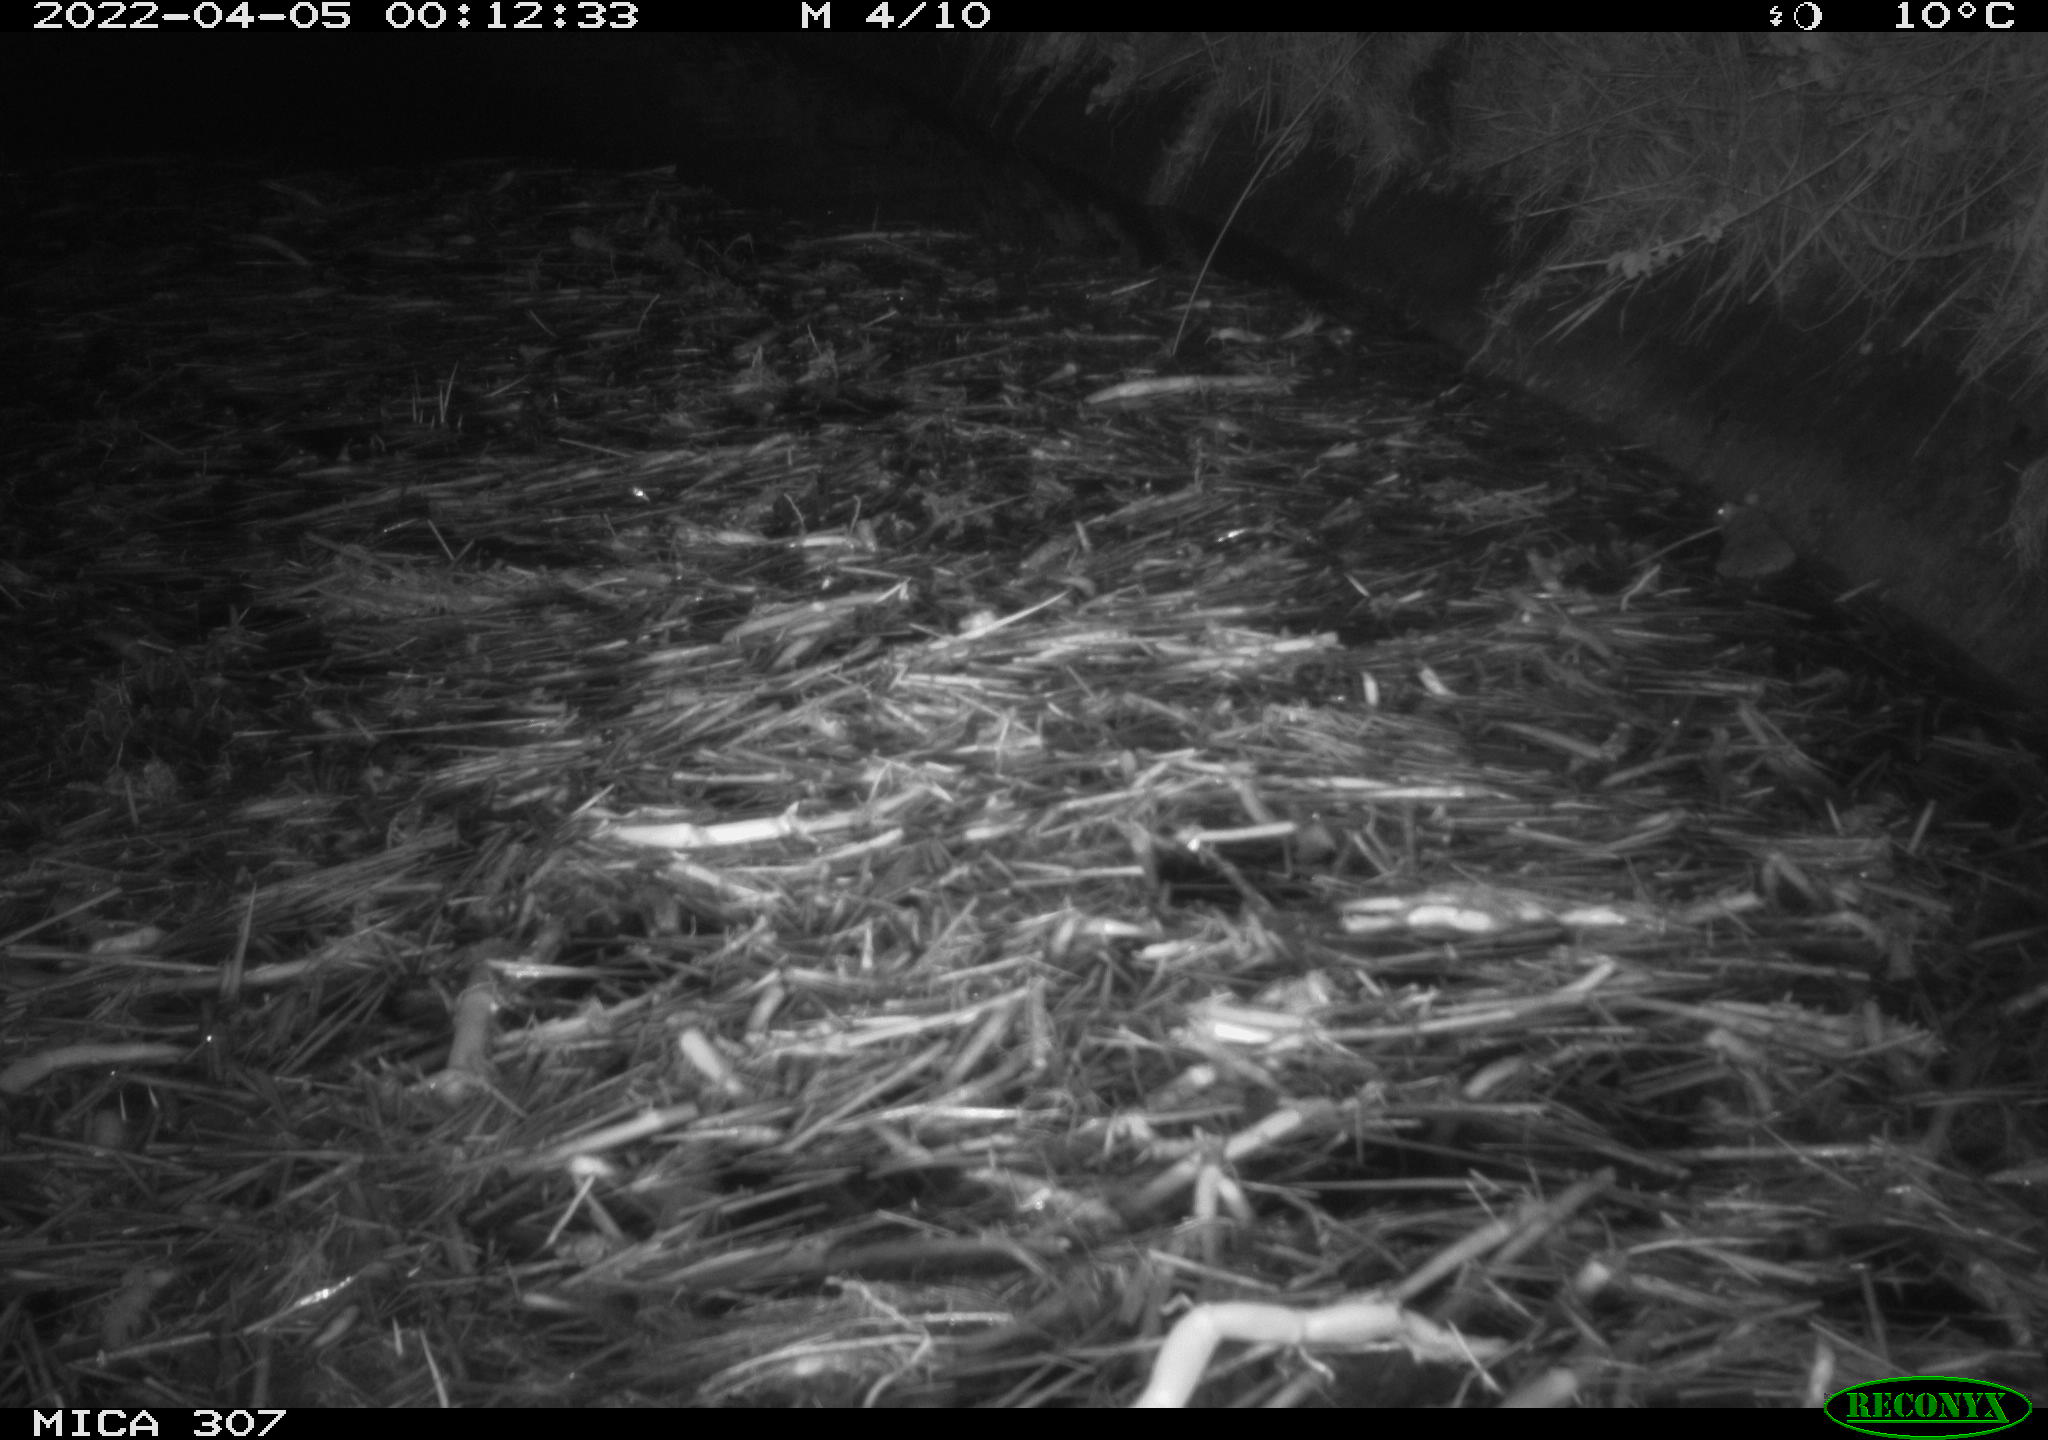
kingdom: Animalia
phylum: Chordata
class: Mammalia
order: Rodentia
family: Cricetidae
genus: Ondatra
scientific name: Ondatra zibethicus
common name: Muskrat
